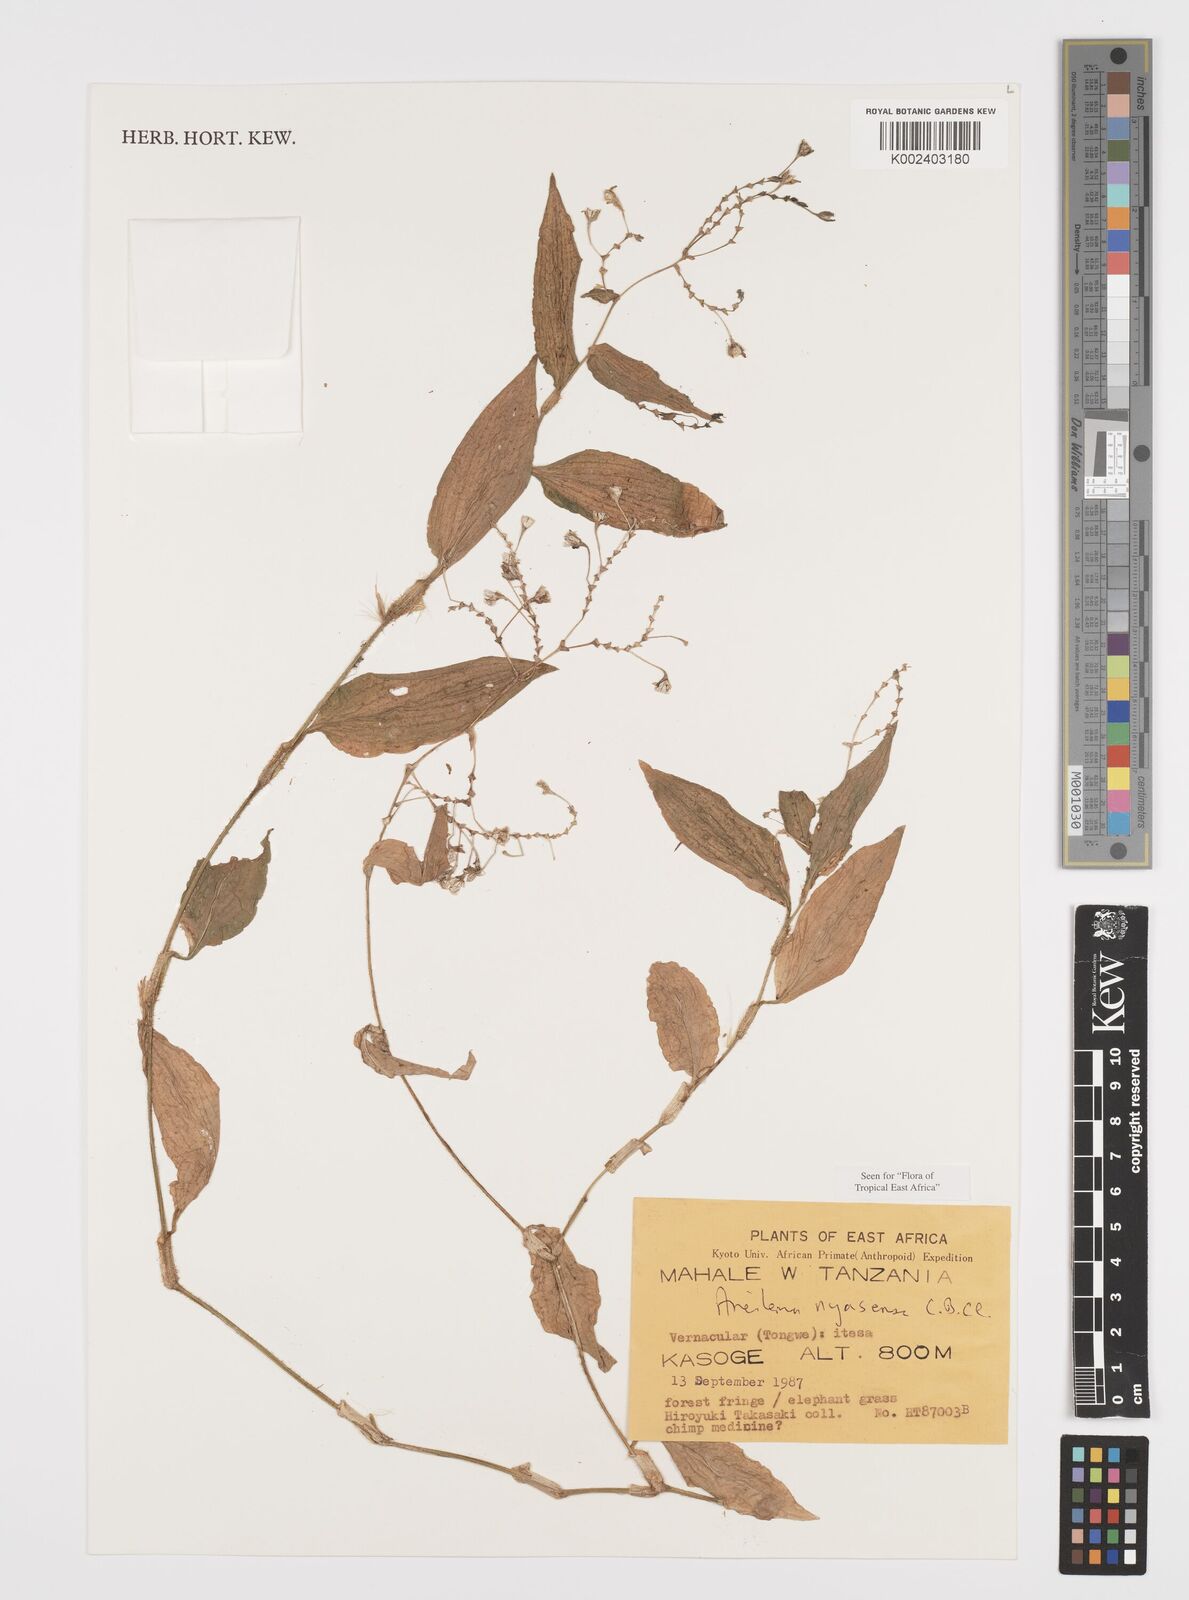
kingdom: Plantae
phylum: Tracheophyta
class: Liliopsida
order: Commelinales
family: Commelinaceae
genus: Aneilema
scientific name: Aneilema nyasense
